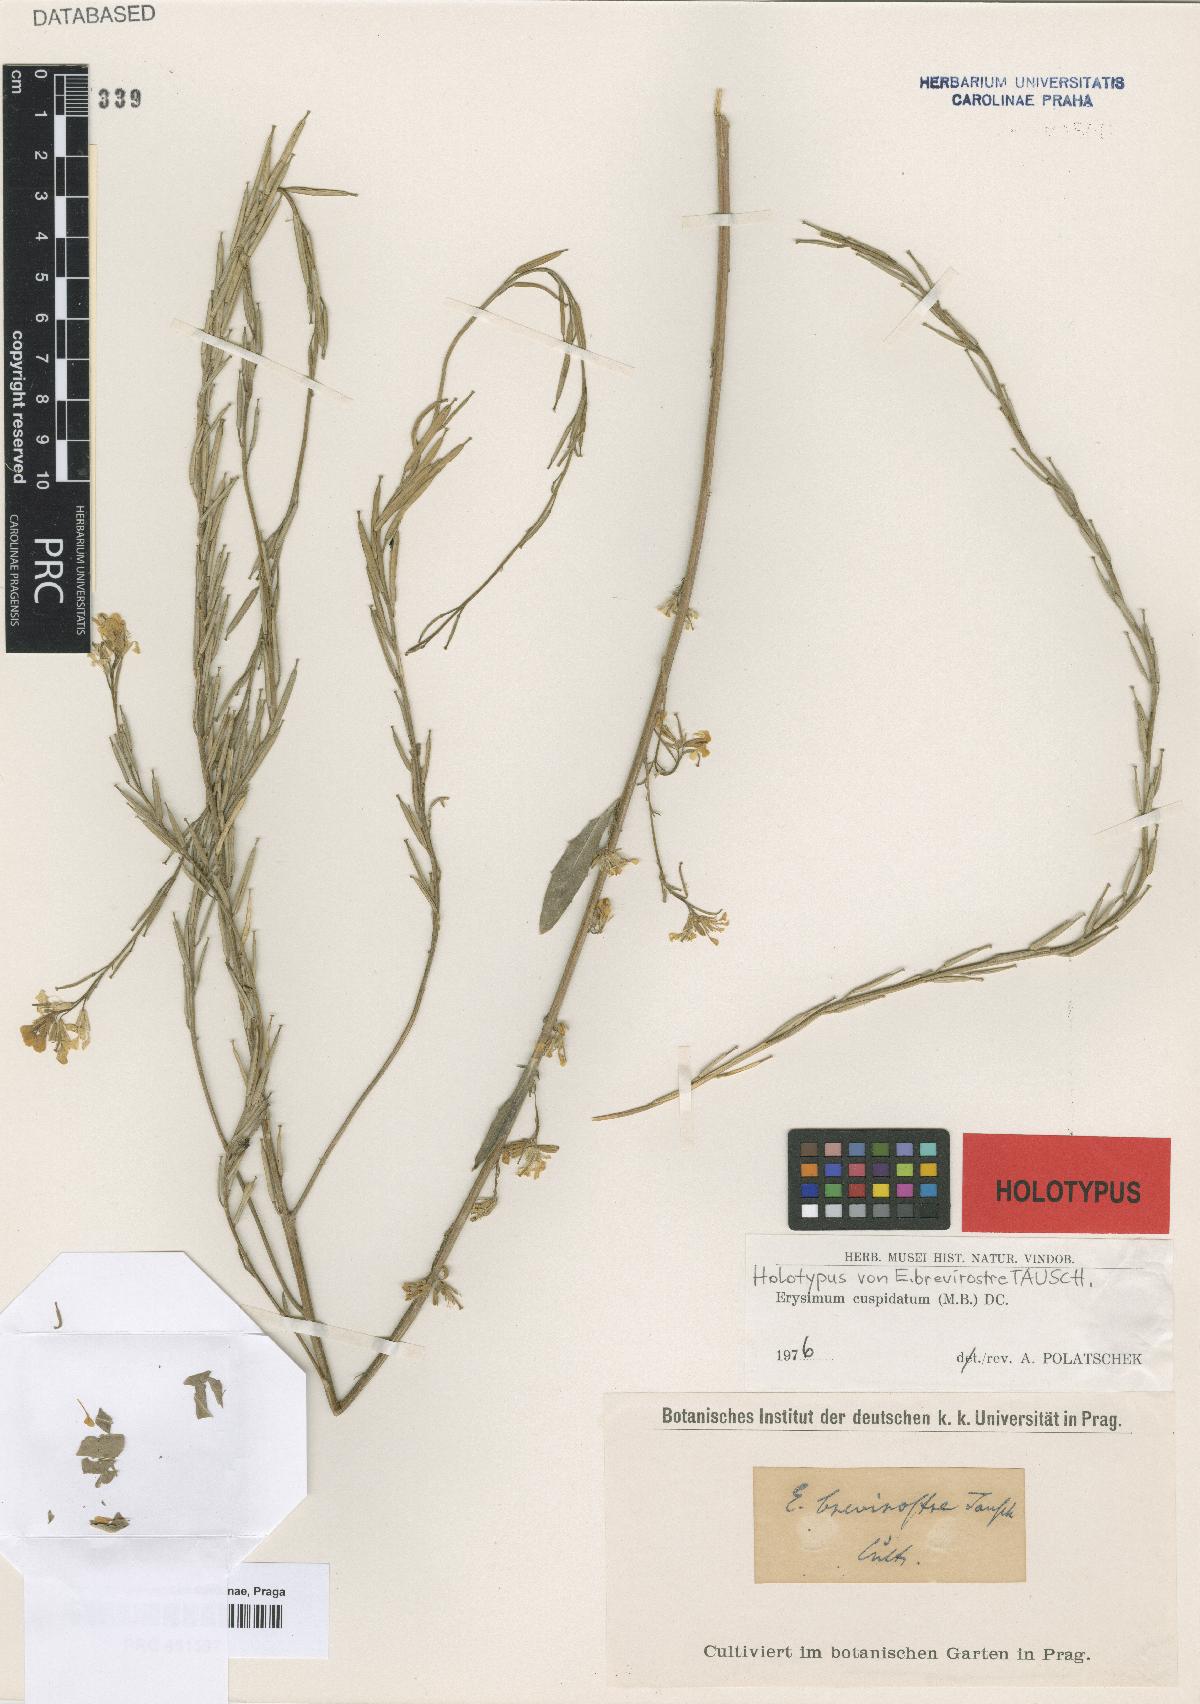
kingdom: Plantae
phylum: Tracheophyta
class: Magnoliopsida
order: Brassicales
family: Brassicaceae
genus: Erysimum
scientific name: Erysimum cuspidatum
